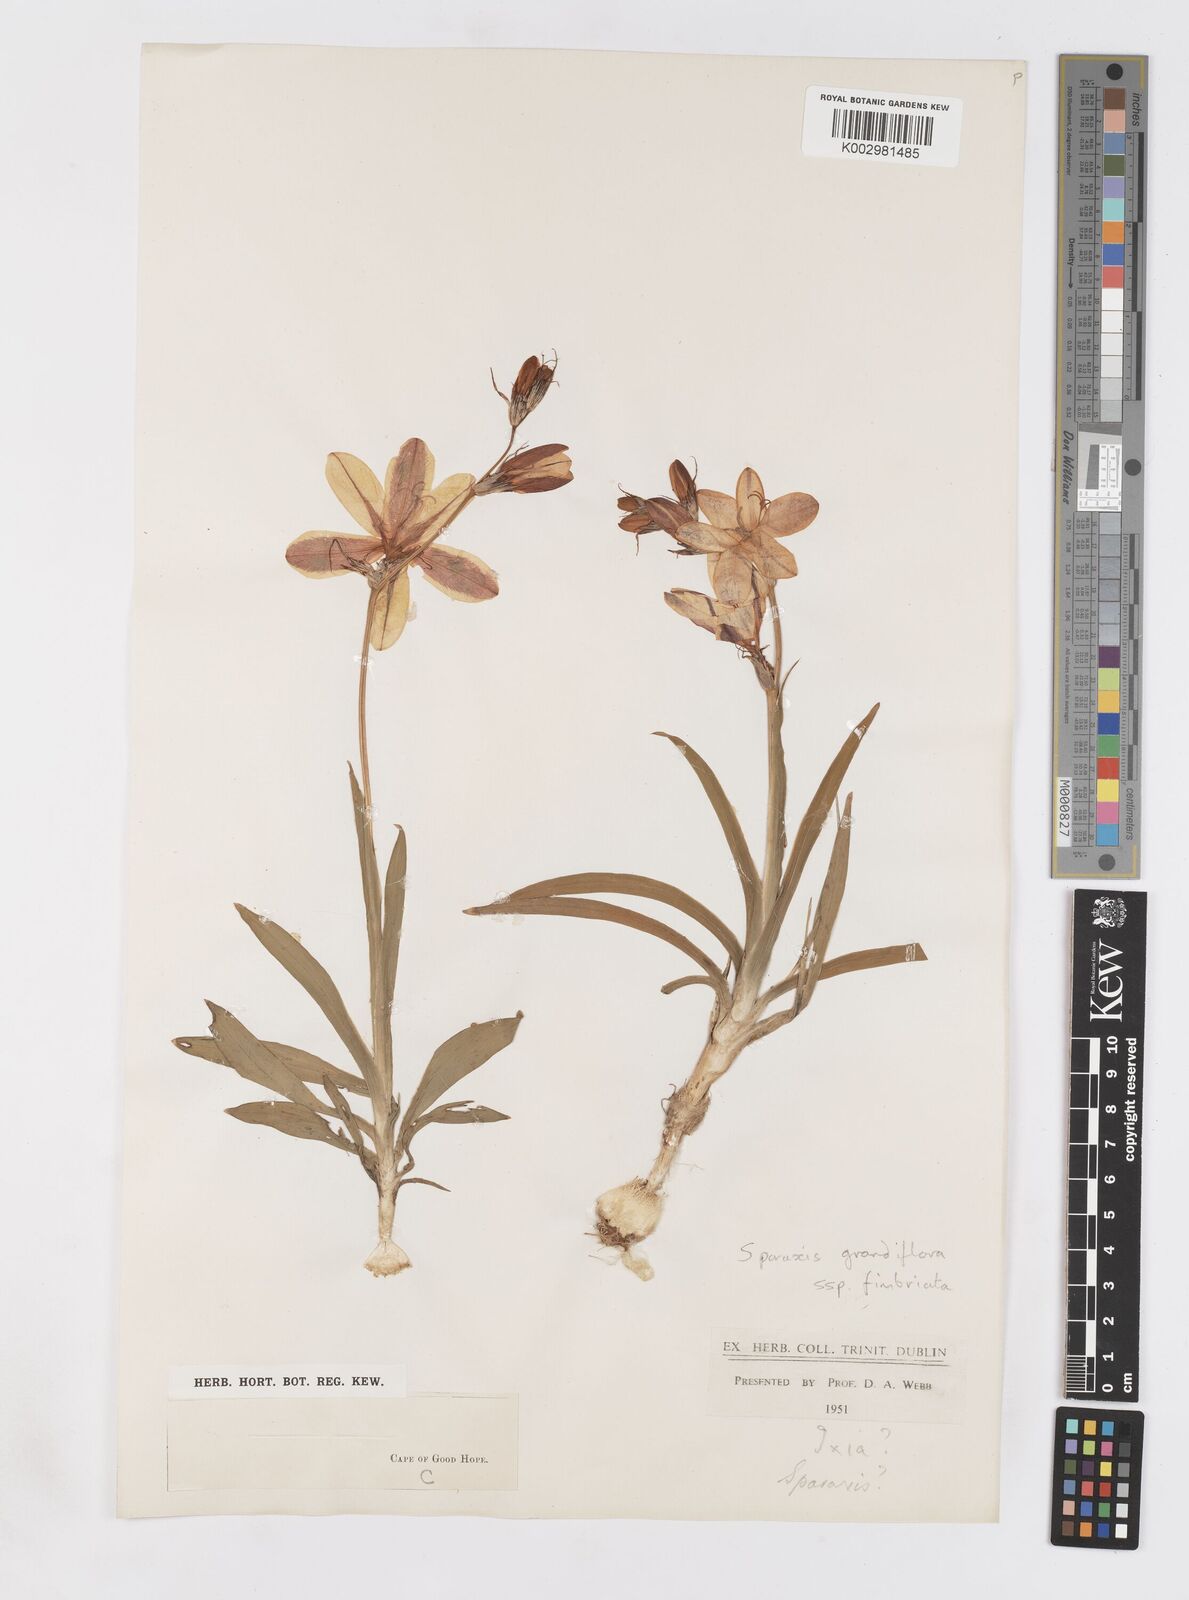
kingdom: Plantae
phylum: Tracheophyta
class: Liliopsida
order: Asparagales
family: Iridaceae
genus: Sparaxis
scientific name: Sparaxis grandiflora
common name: Plain harlequin-flower
